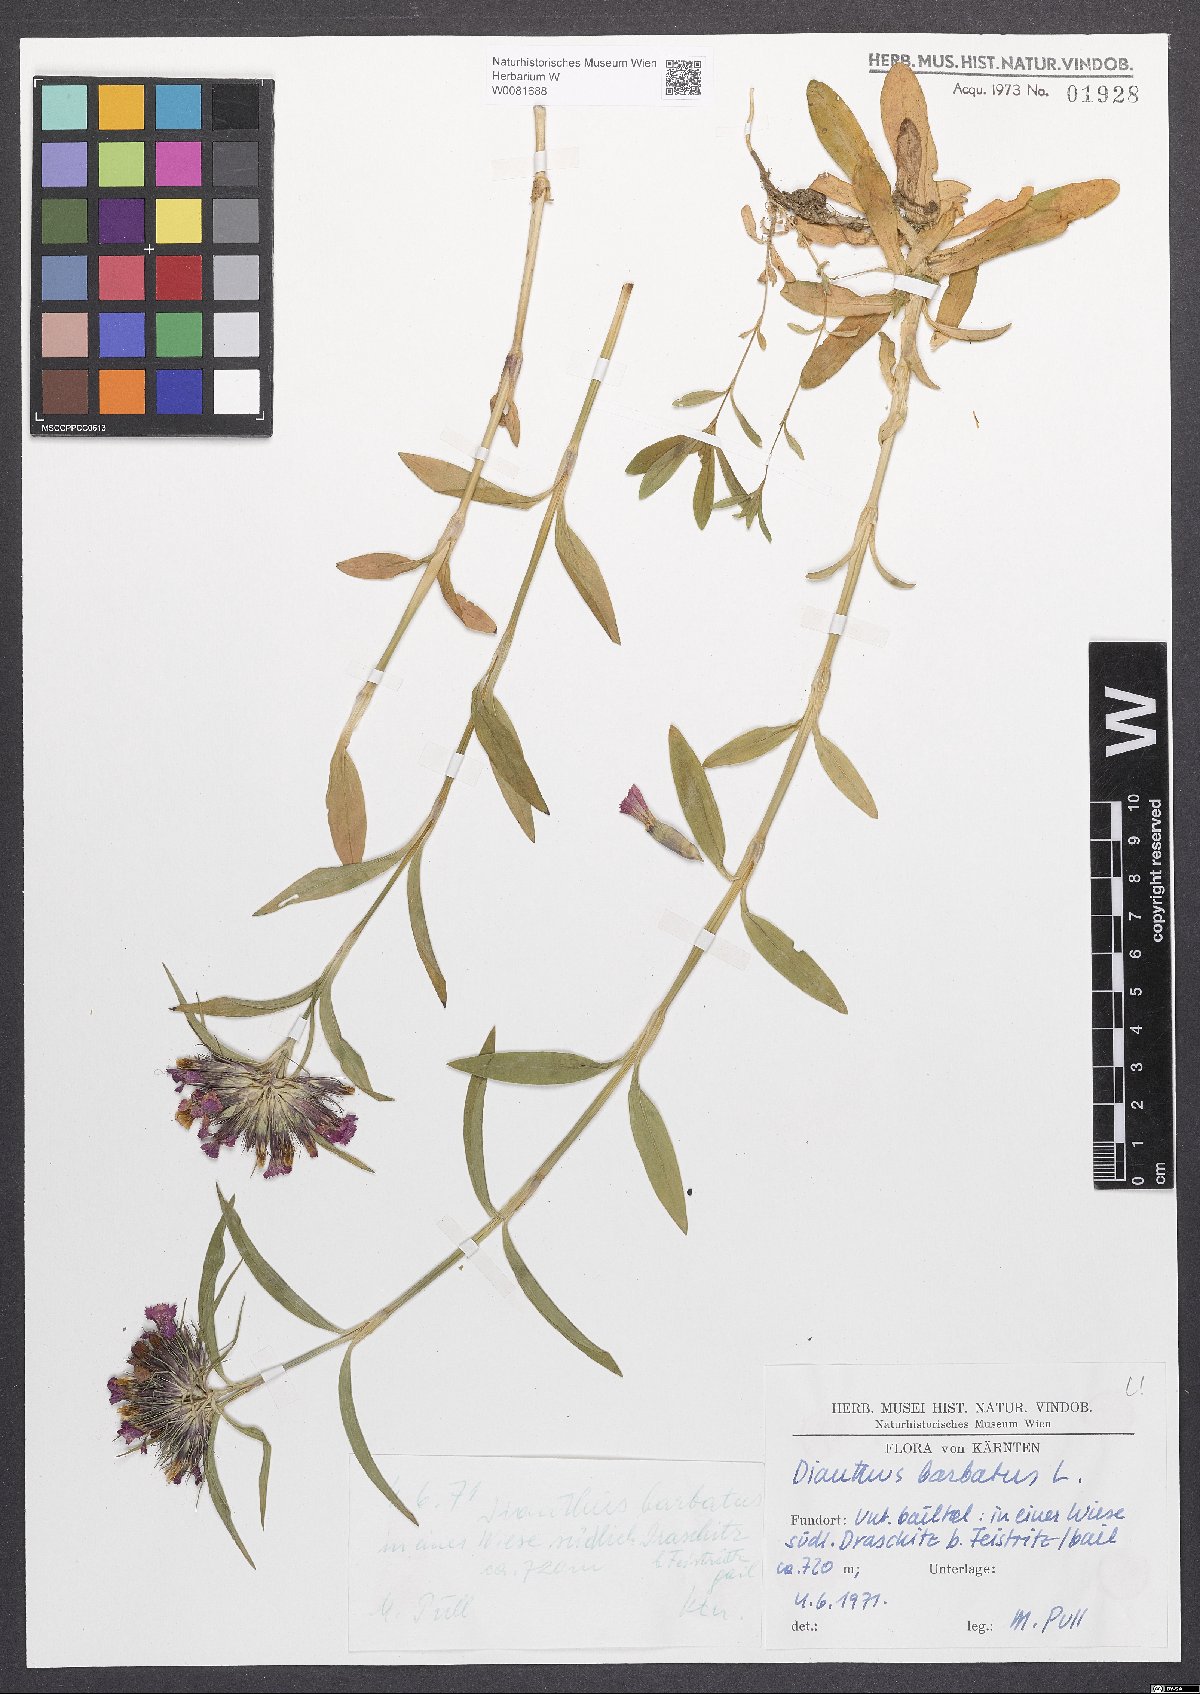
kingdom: Plantae
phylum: Tracheophyta
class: Magnoliopsida
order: Caryophyllales
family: Caryophyllaceae
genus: Dianthus
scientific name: Dianthus barbatus
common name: Sweet-william
